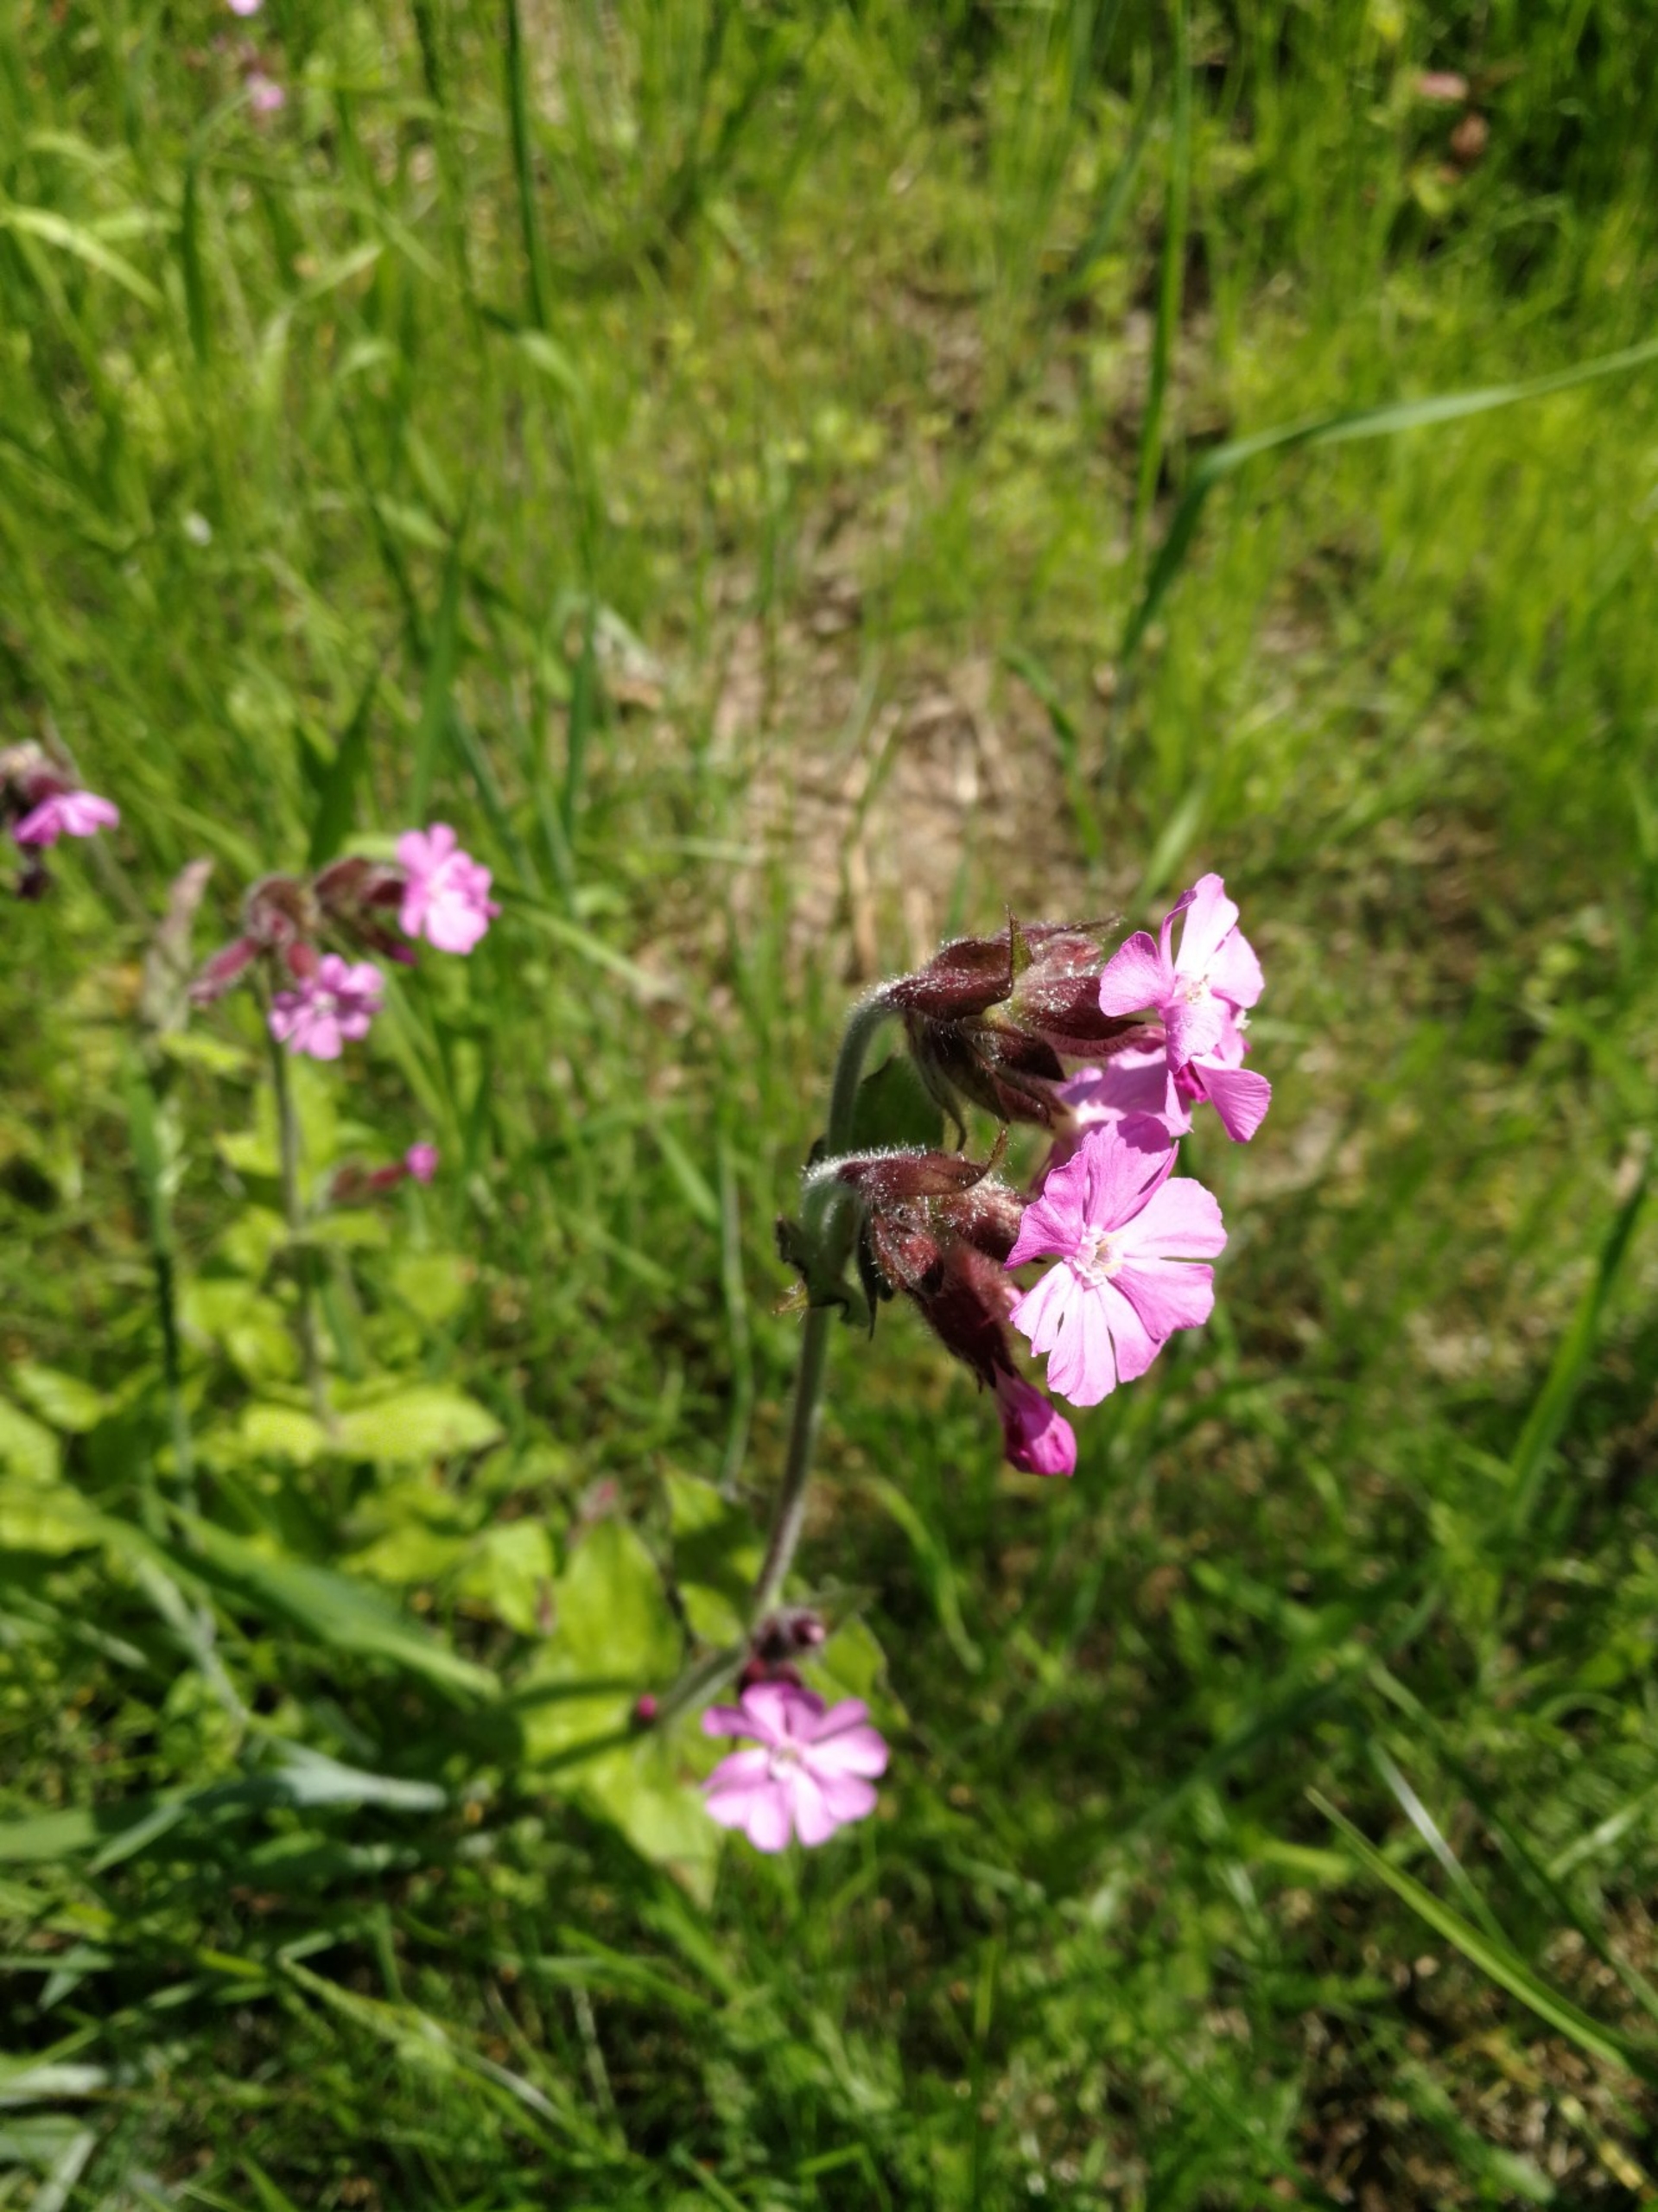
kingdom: Plantae
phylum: Tracheophyta
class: Magnoliopsida
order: Caryophyllales
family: Caryophyllaceae
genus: Silene
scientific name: Silene dioica
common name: Dagpragtstjerne
